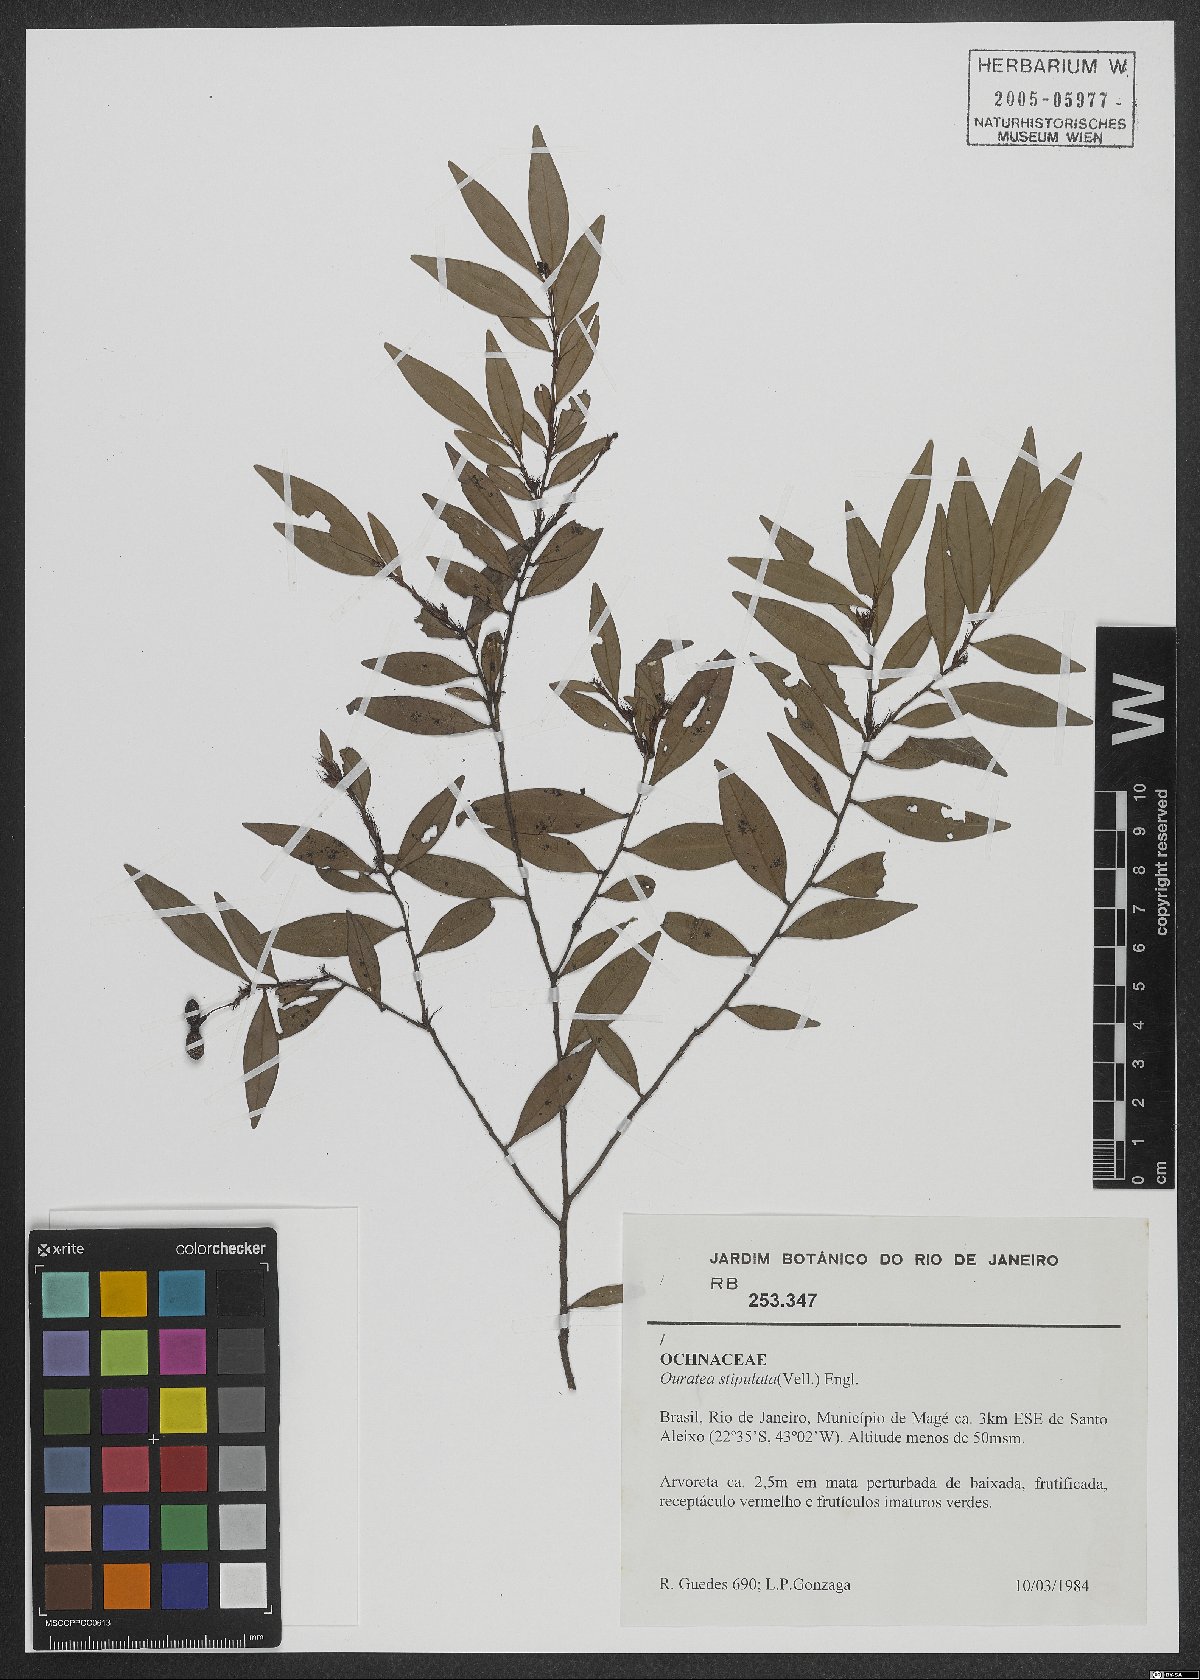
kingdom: Plantae
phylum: Tracheophyta
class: Magnoliopsida
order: Malpighiales
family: Ochnaceae
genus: Ouratea
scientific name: Ouratea stipulata
